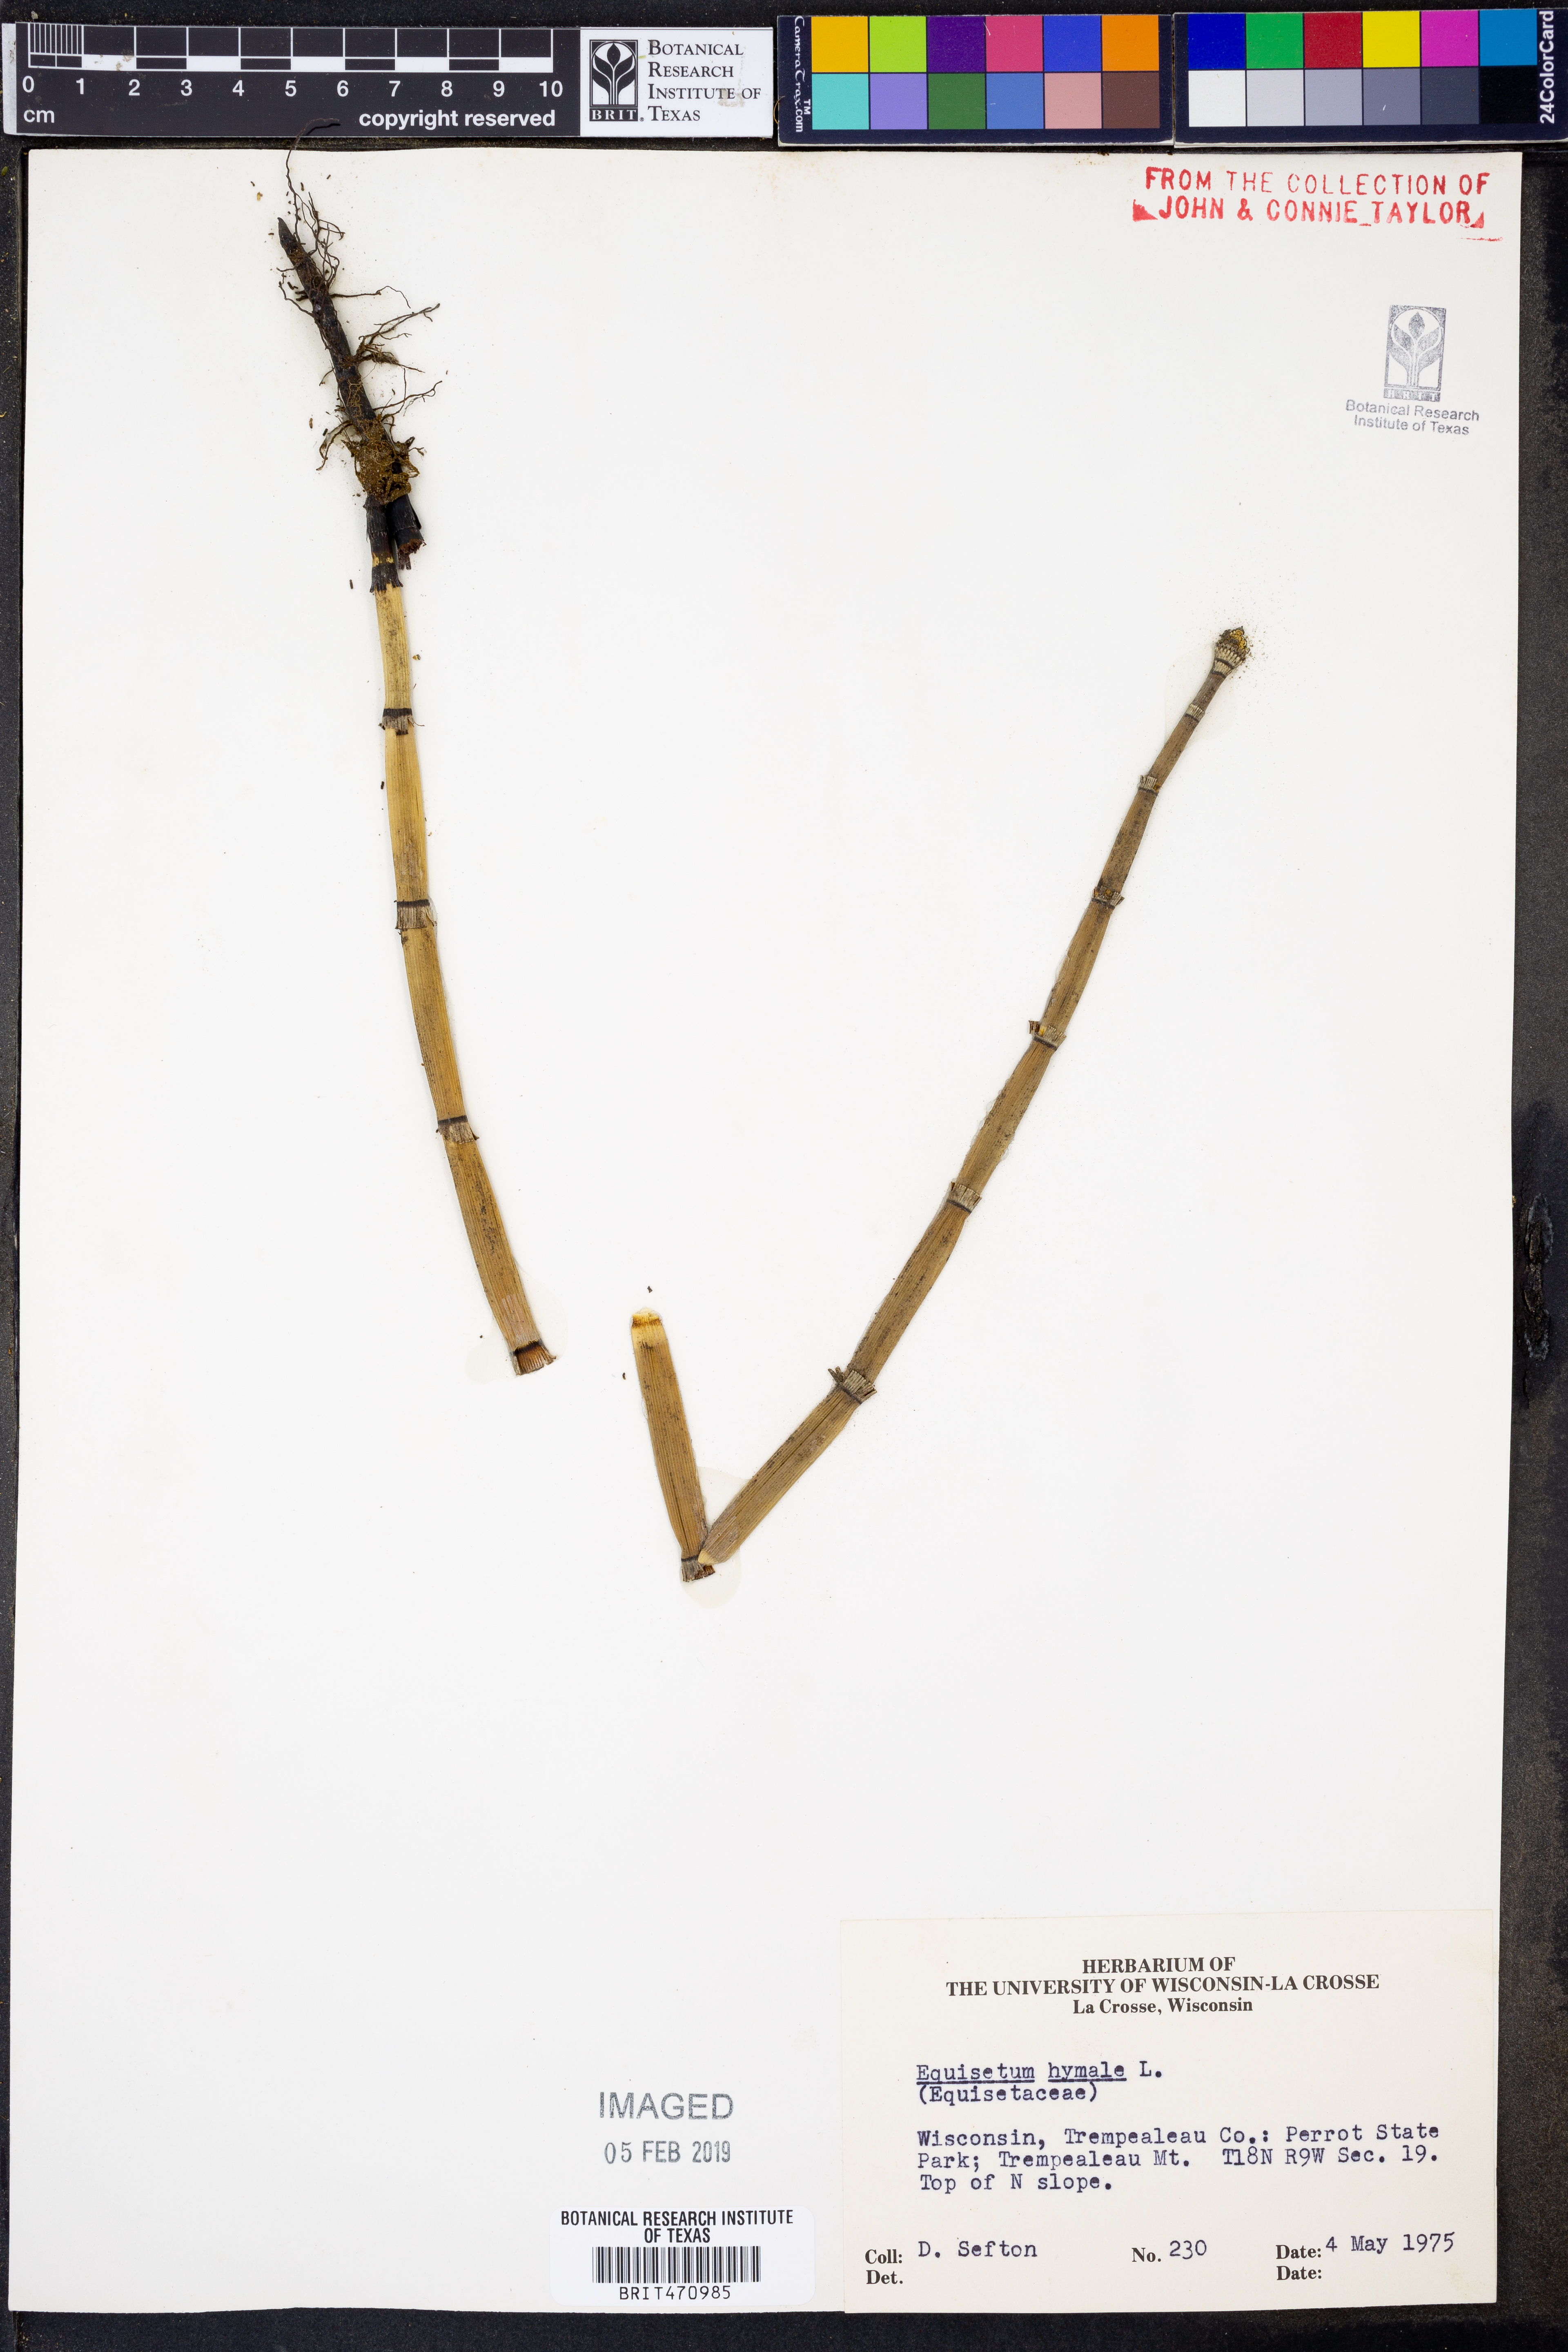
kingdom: Plantae
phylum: Tracheophyta
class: Polypodiopsida
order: Equisetales
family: Equisetaceae
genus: Equisetum
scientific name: Equisetum hyemale
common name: Rough horsetail
